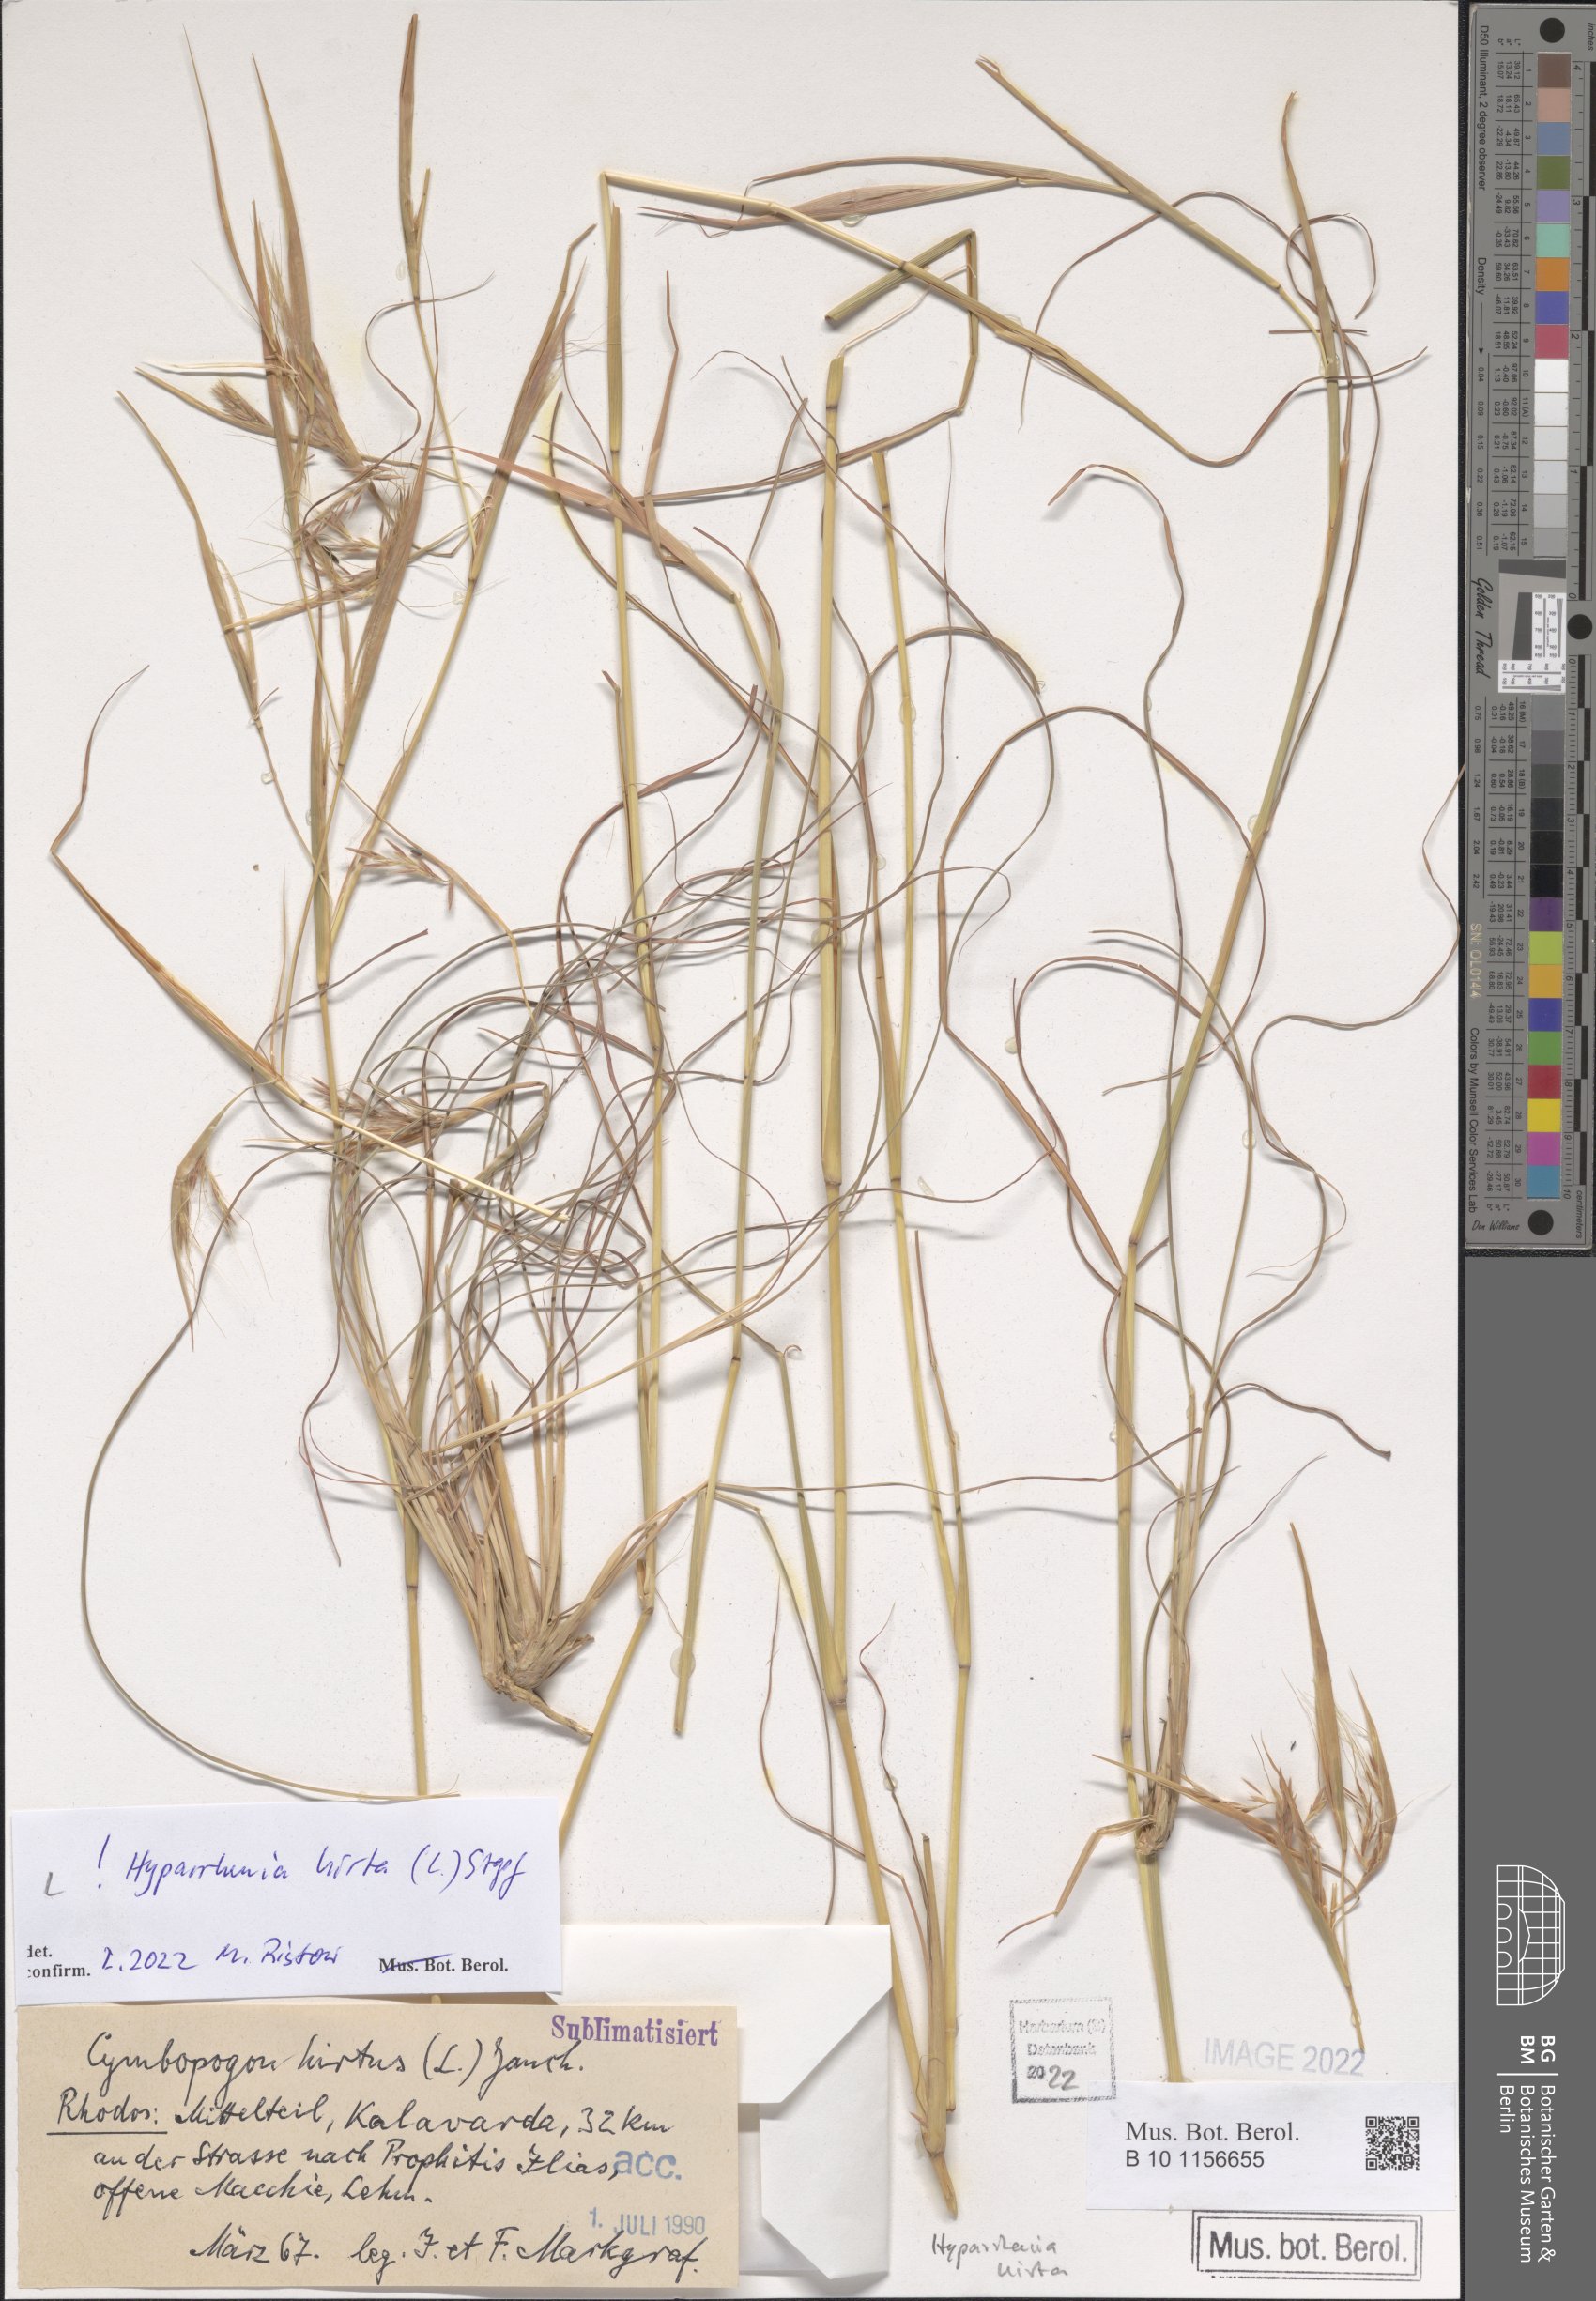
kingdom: Plantae
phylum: Tracheophyta
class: Liliopsida
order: Poales
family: Poaceae
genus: Hyparrhenia
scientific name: Hyparrhenia hirta
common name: Thatching grass
